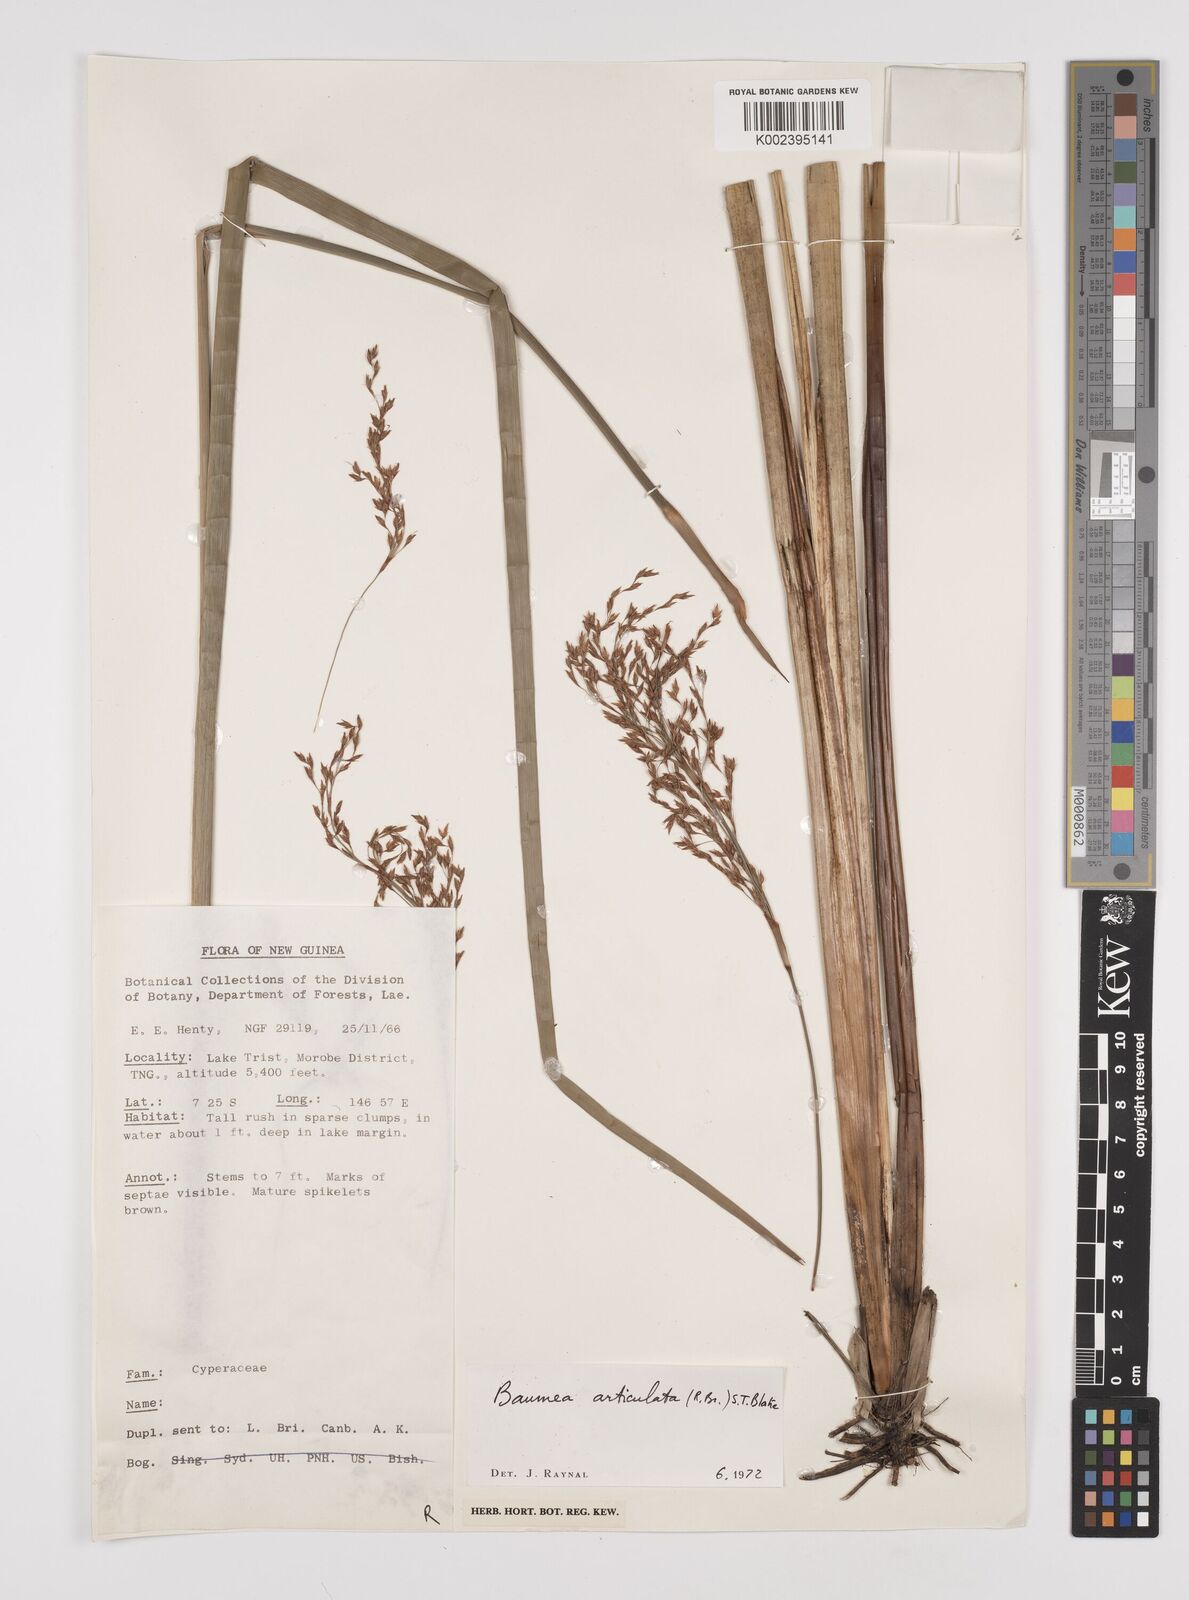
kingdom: Plantae
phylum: Tracheophyta
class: Liliopsida
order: Poales
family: Cyperaceae
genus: Machaerina
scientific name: Machaerina articulata
